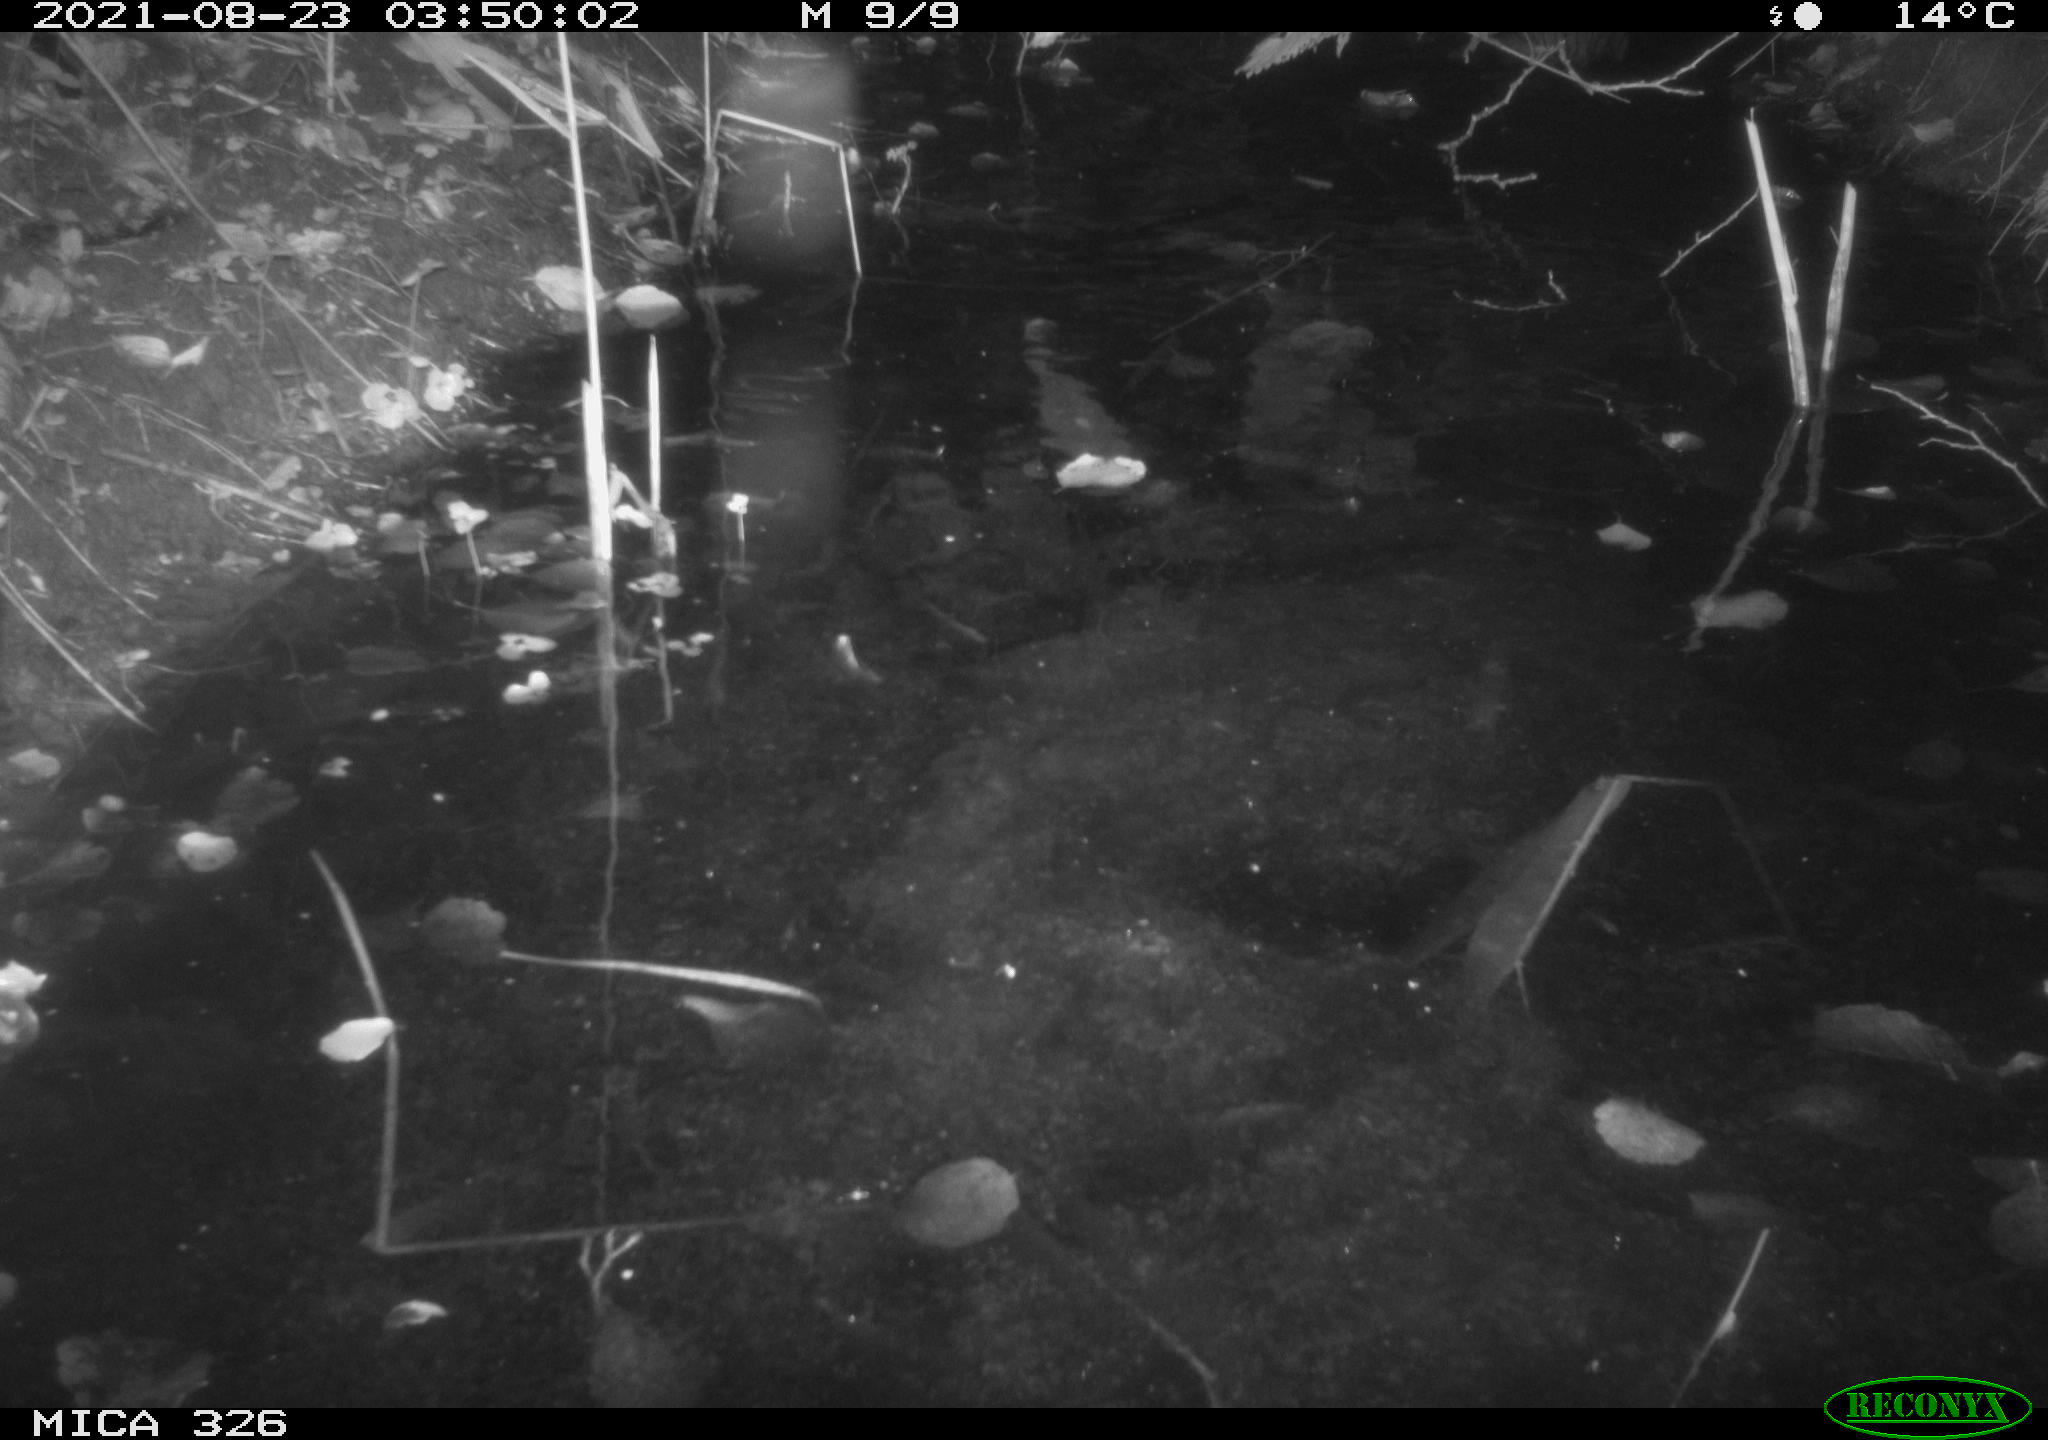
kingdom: Animalia
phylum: Chordata
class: Mammalia
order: Rodentia
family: Myocastoridae
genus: Myocastor
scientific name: Myocastor coypus
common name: Coypu
